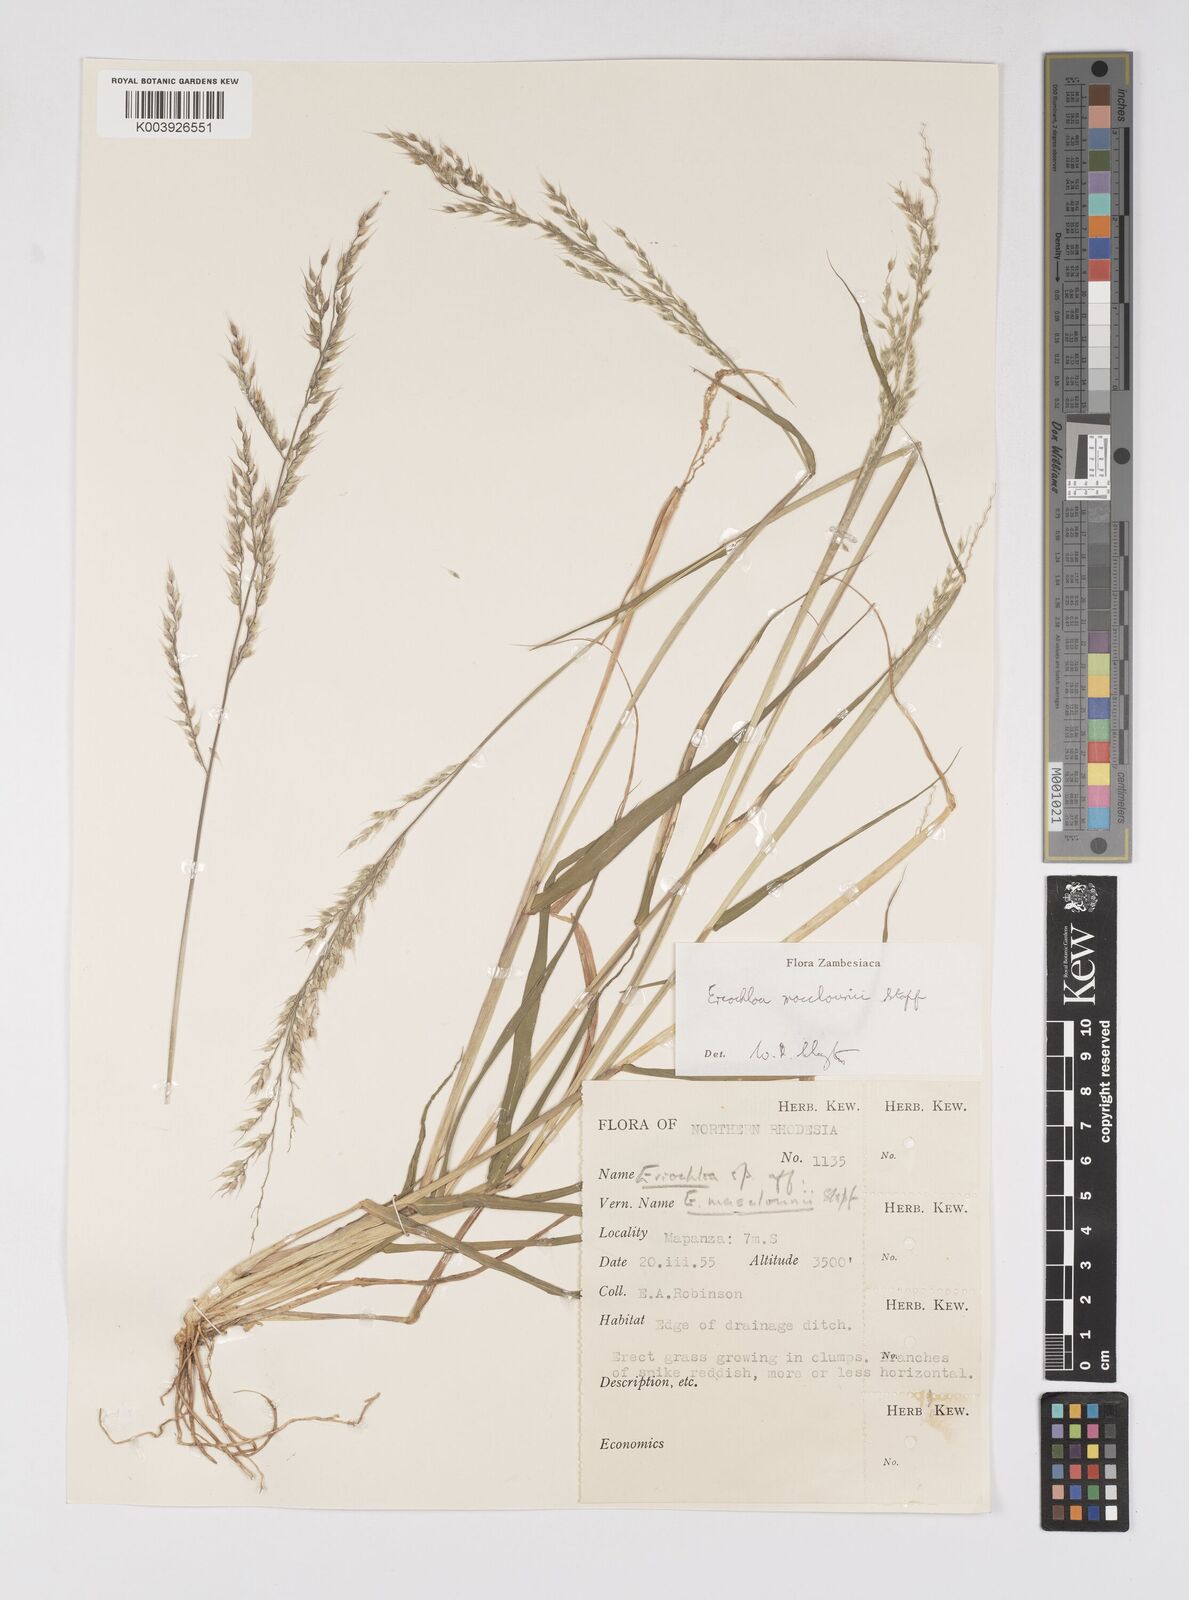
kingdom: Plantae
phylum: Tracheophyta
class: Liliopsida
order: Poales
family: Poaceae
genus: Eriochloa
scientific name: Eriochloa macclounii
